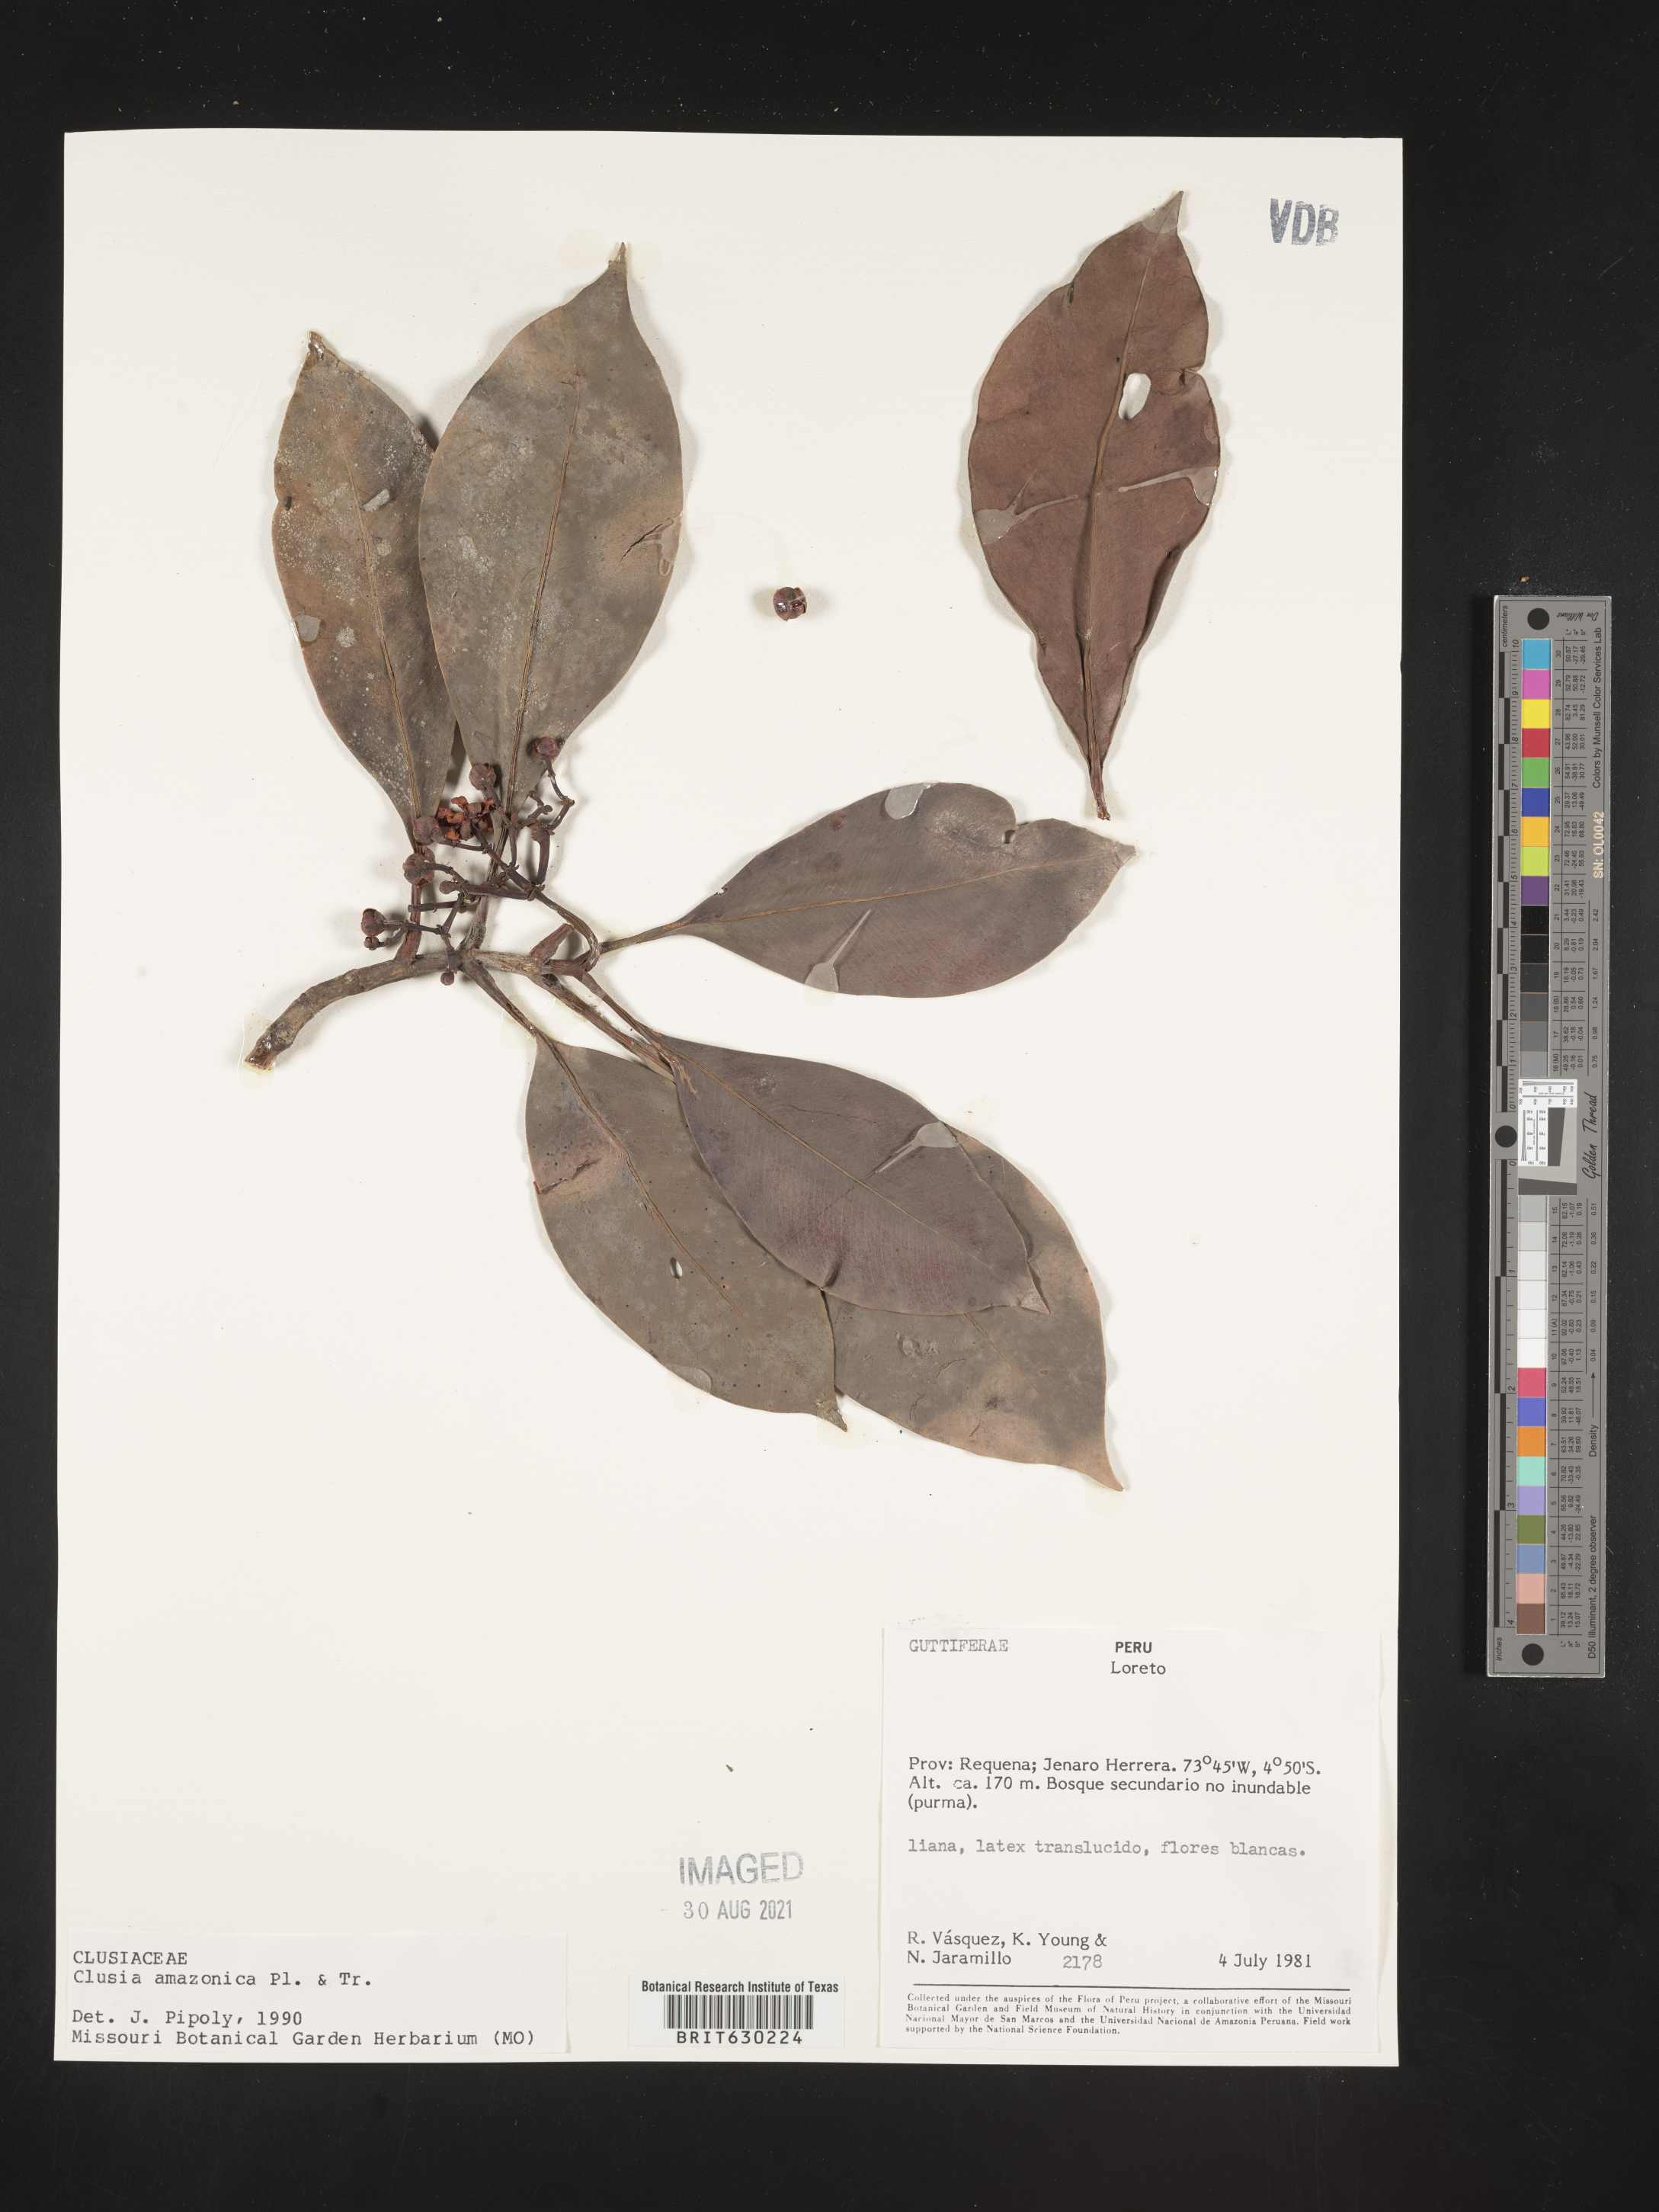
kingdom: Plantae
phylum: Tracheophyta
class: Magnoliopsida
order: Malpighiales
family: Clusiaceae
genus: Clusia
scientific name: Clusia amazonica
